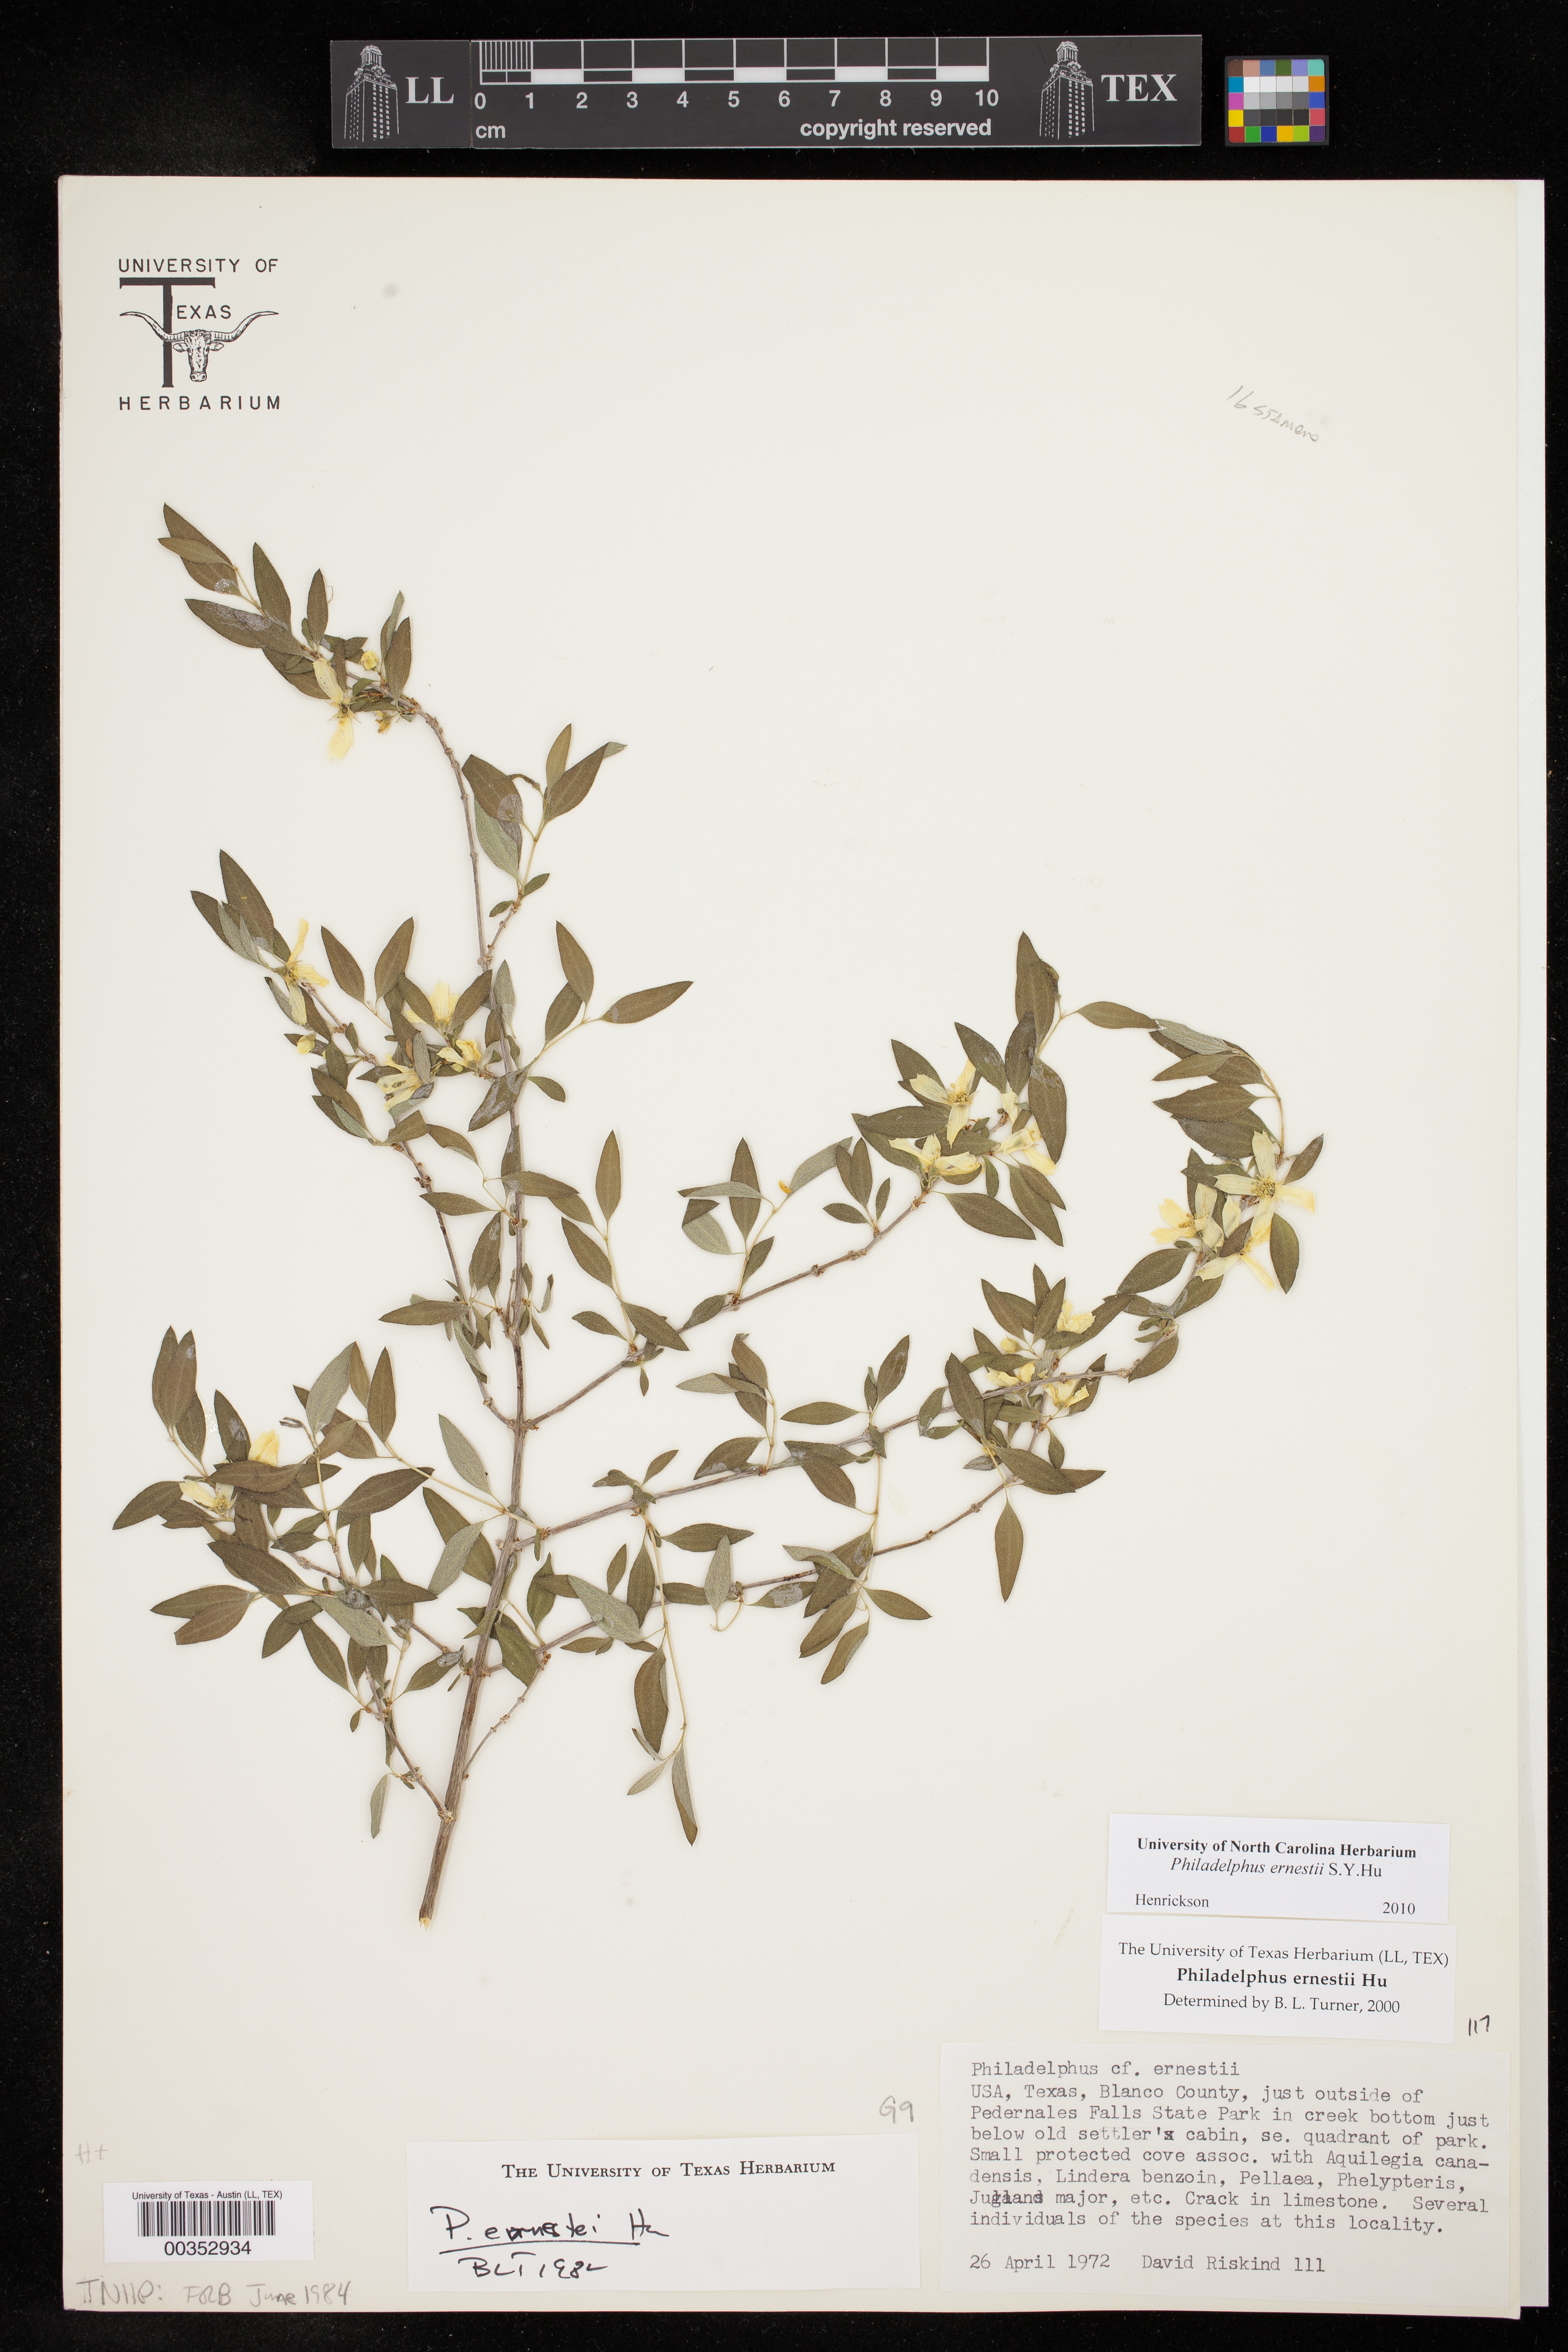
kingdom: Plantae
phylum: Tracheophyta
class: Magnoliopsida
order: Cornales
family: Hydrangeaceae
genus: Philadelphus
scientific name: Philadelphus texensis
